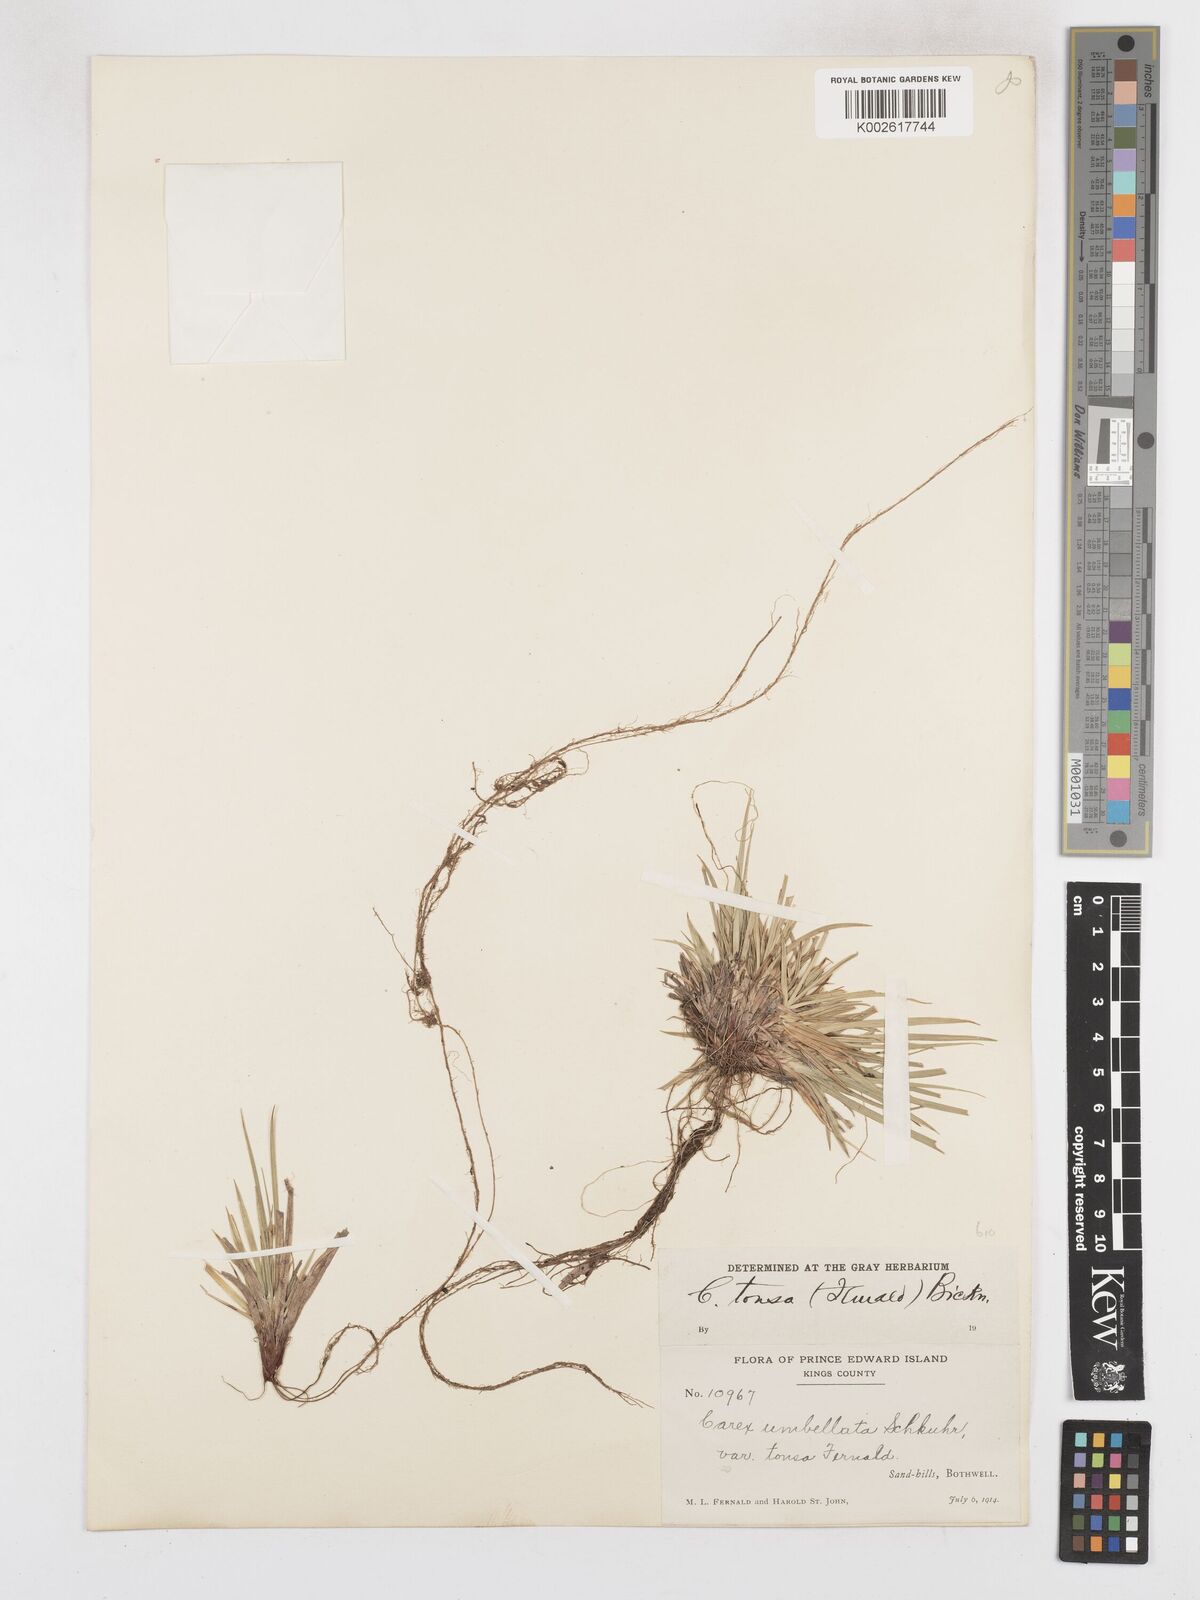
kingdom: Plantae
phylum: Tracheophyta
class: Liliopsida
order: Poales
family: Cyperaceae
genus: Carex
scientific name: Carex tonsa
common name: Bald sedge
